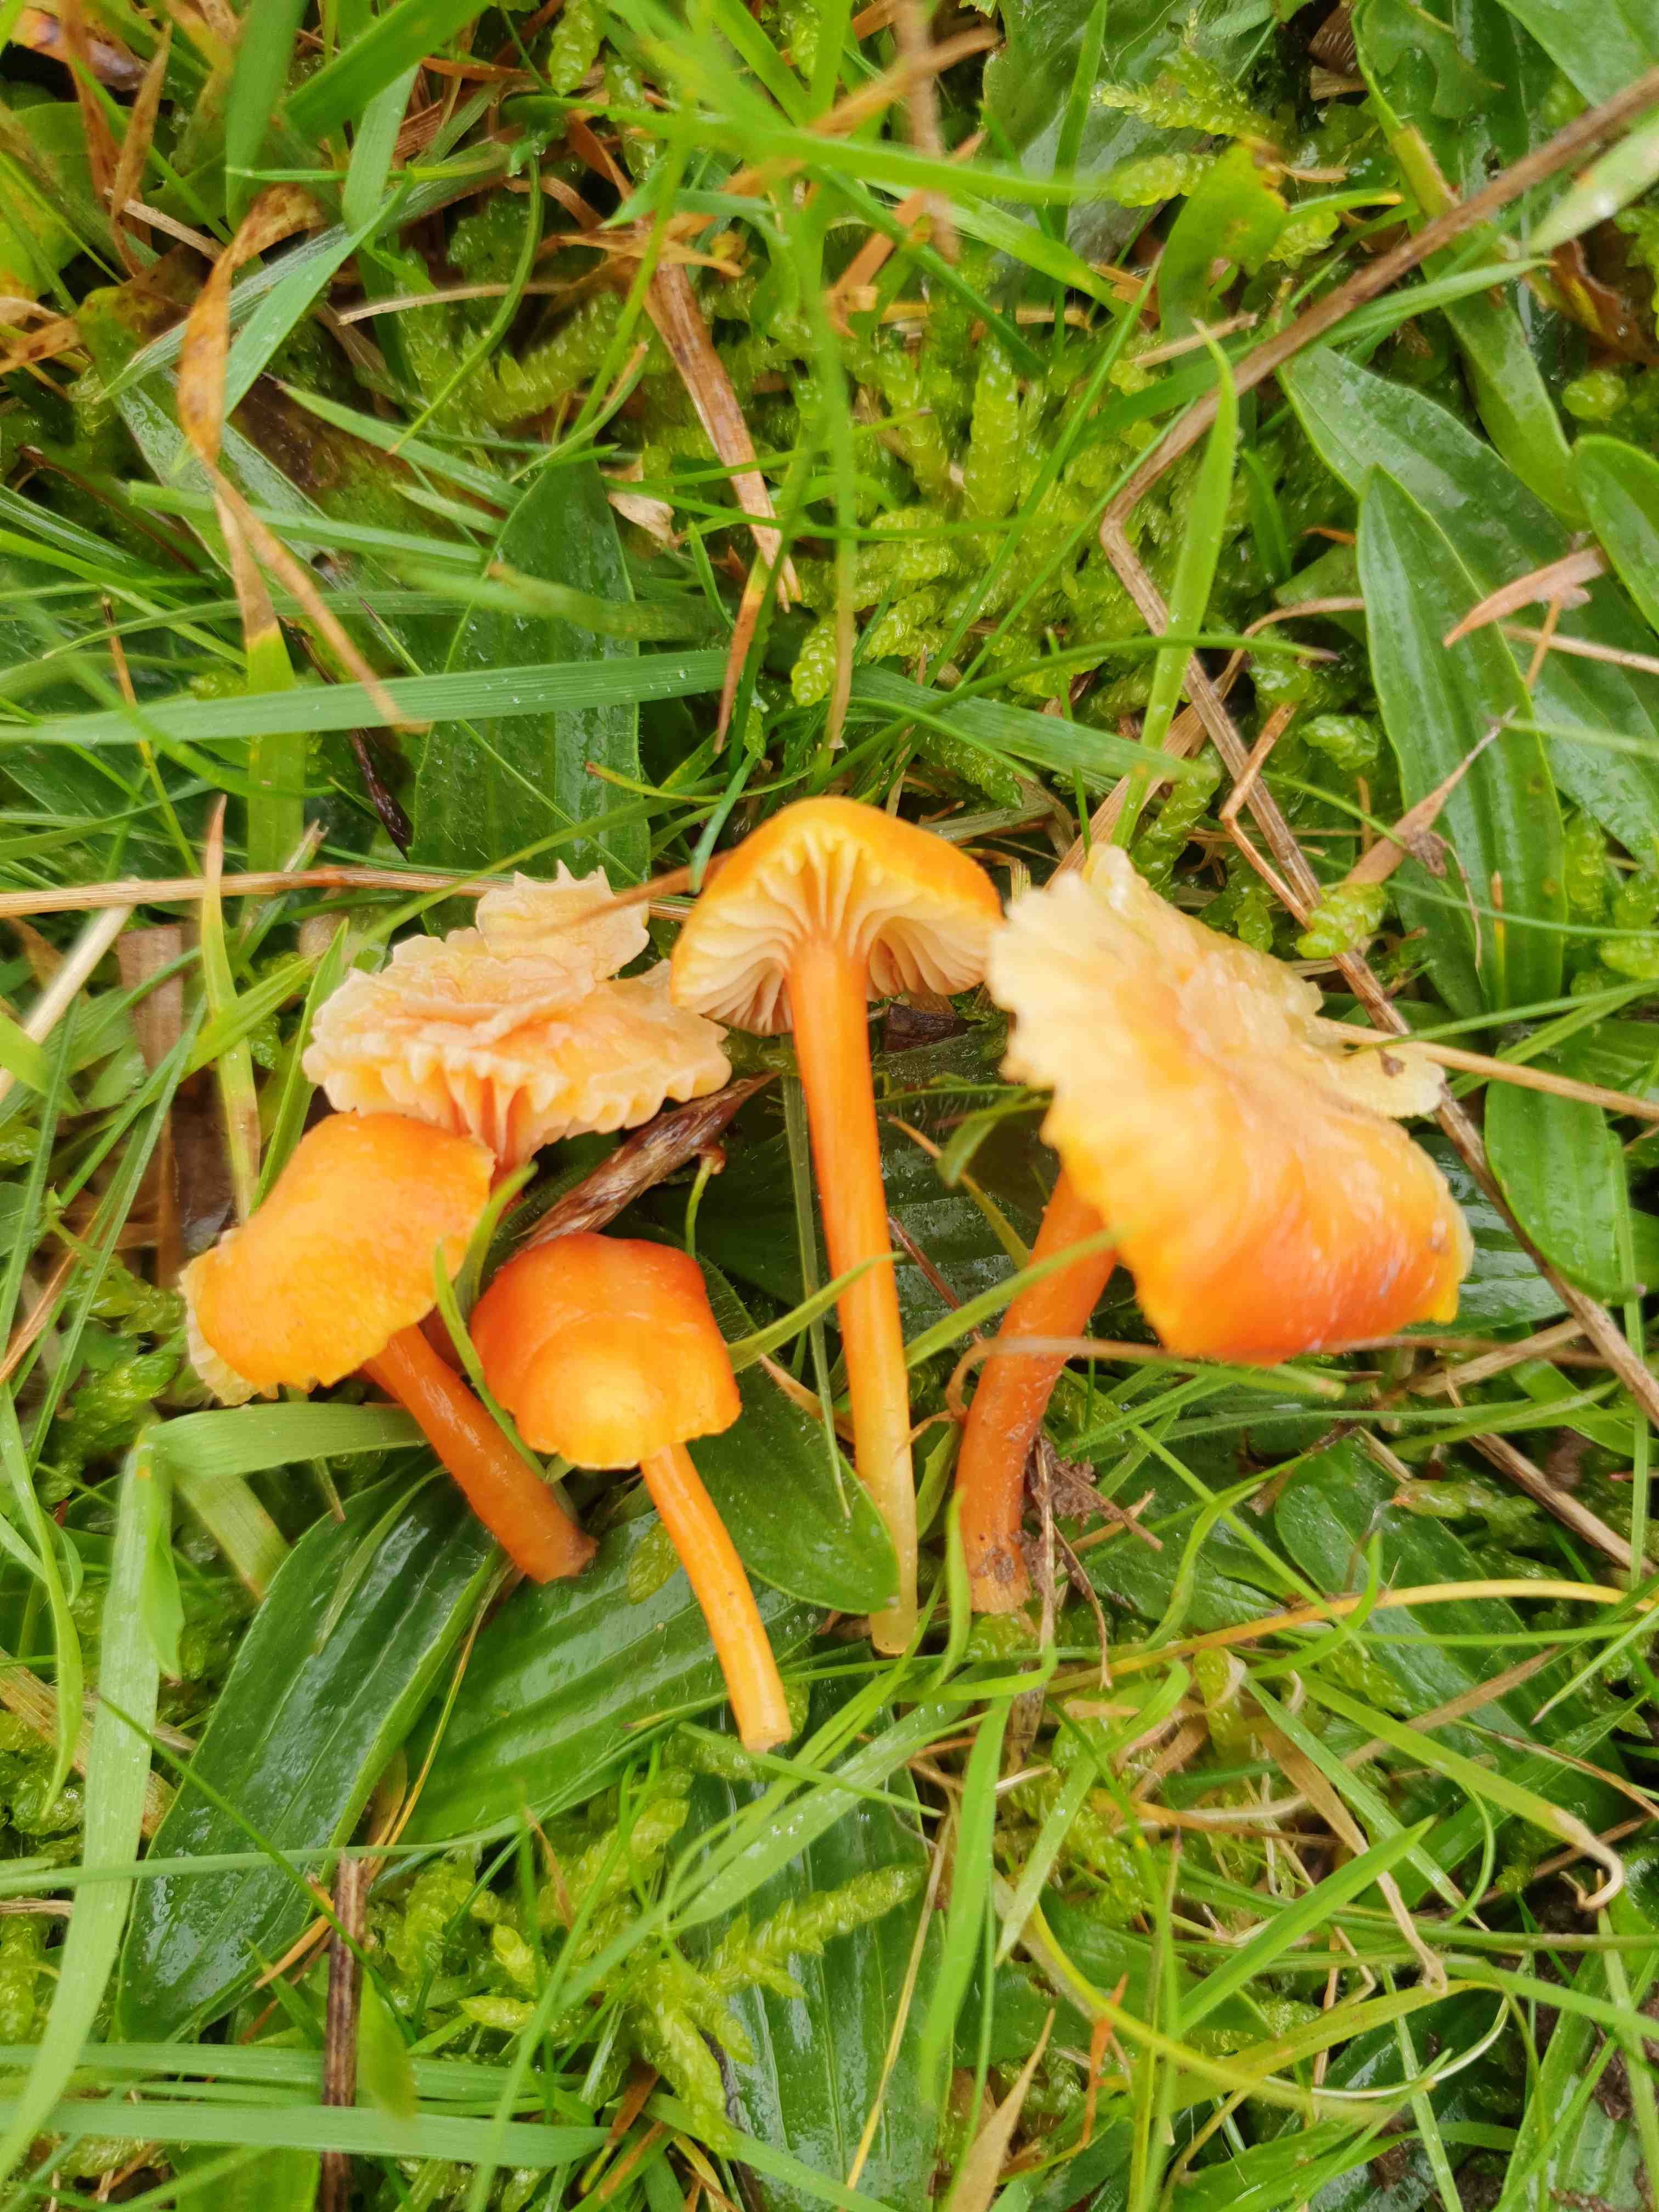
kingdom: Fungi
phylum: Basidiomycota
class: Agaricomycetes
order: Agaricales
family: Hygrophoraceae
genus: Hygrocybe
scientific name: Hygrocybe cantharellus
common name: kantarel-vokshat
